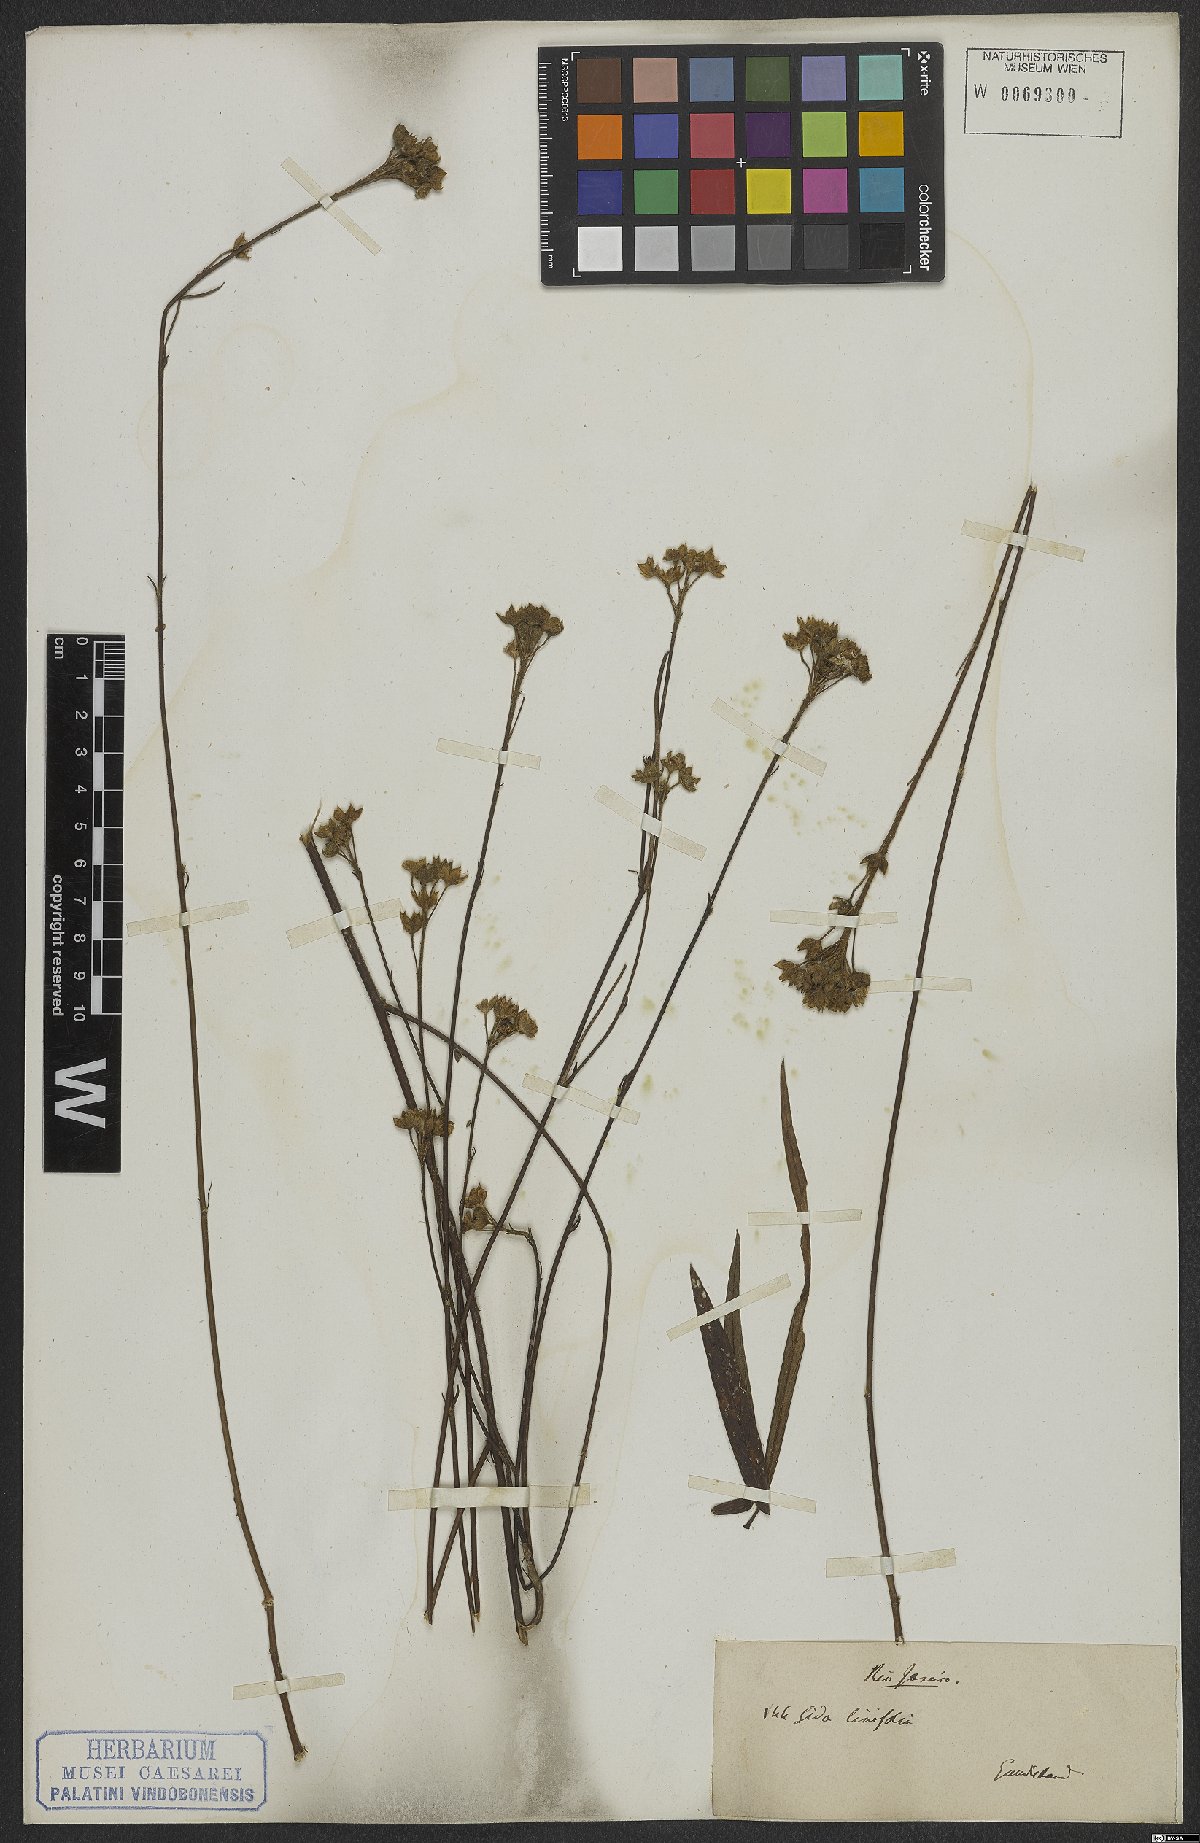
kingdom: Plantae
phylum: Tracheophyta
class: Magnoliopsida
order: Malvales
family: Malvaceae
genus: Sida
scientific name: Sida linifolia
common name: Flaxleaf fanpetals
